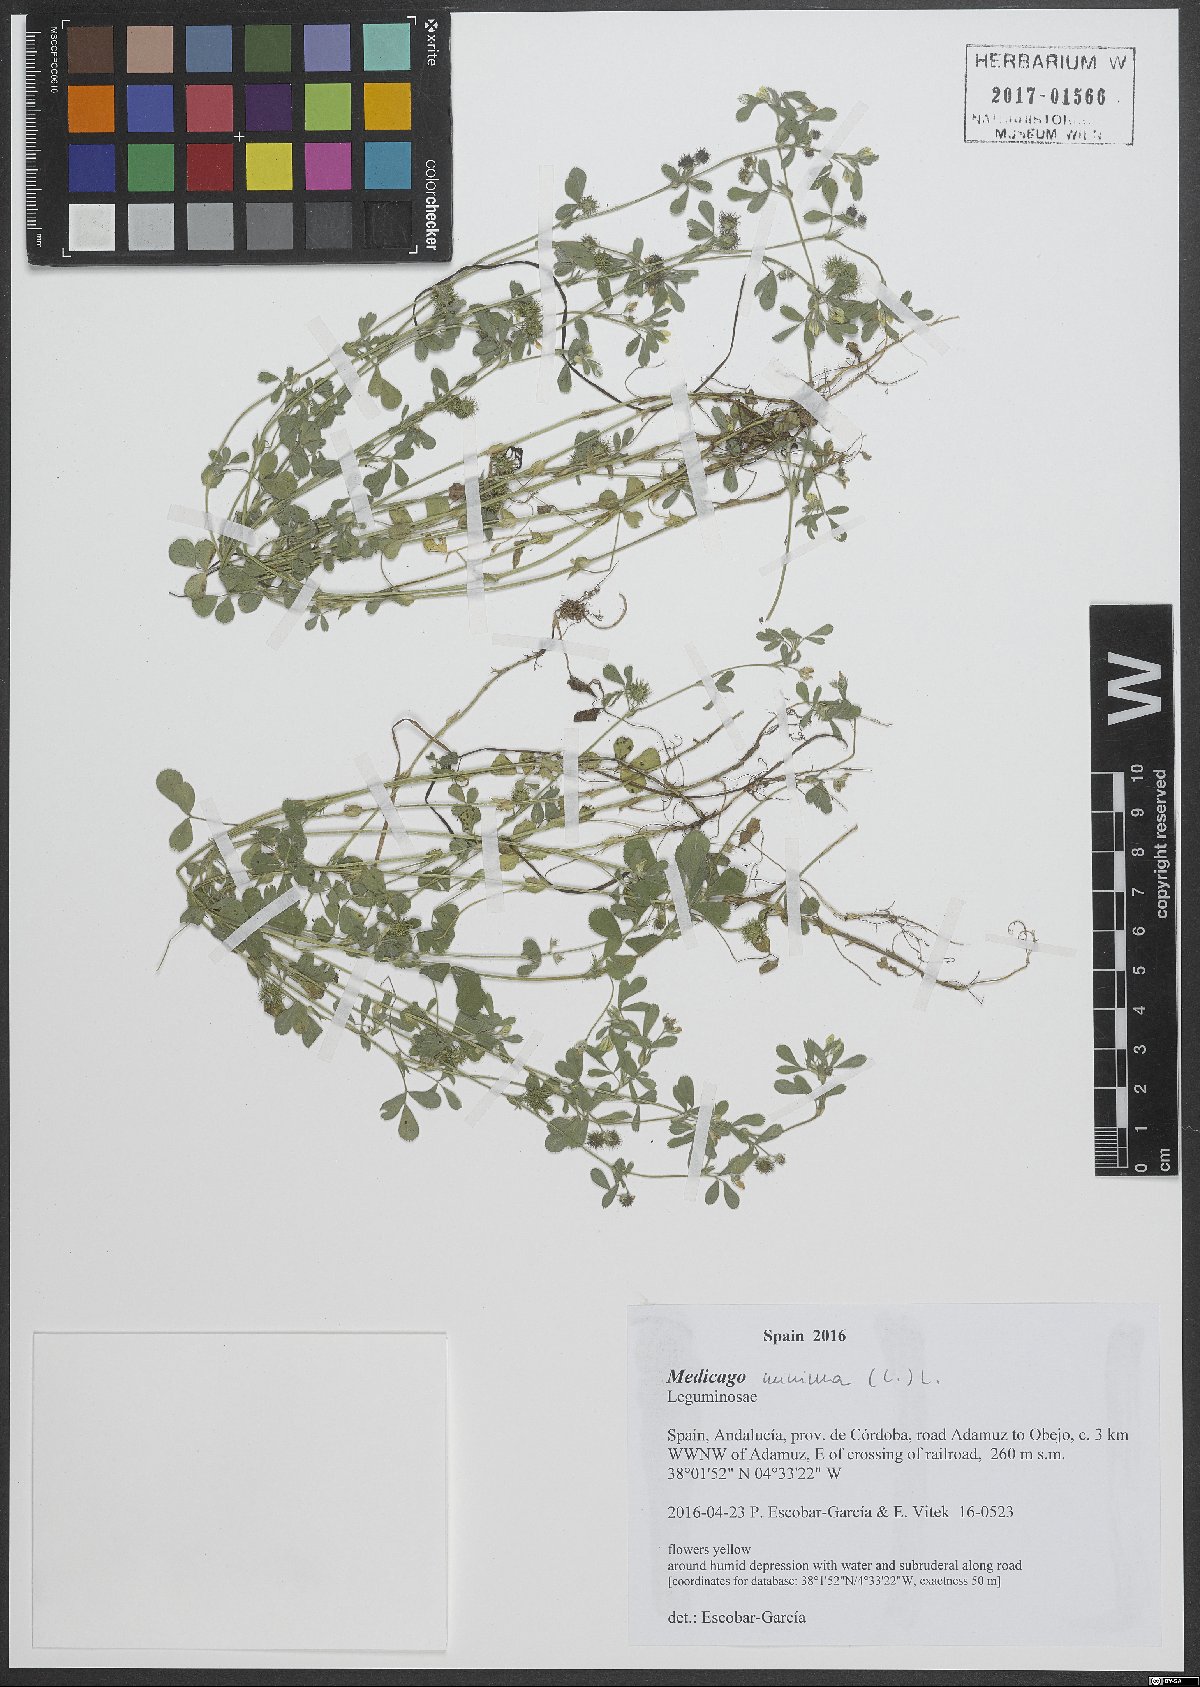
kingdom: Plantae
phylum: Tracheophyta
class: Magnoliopsida
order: Fabales
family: Fabaceae
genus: Medicago
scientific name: Medicago minima
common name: Little bur-clover
